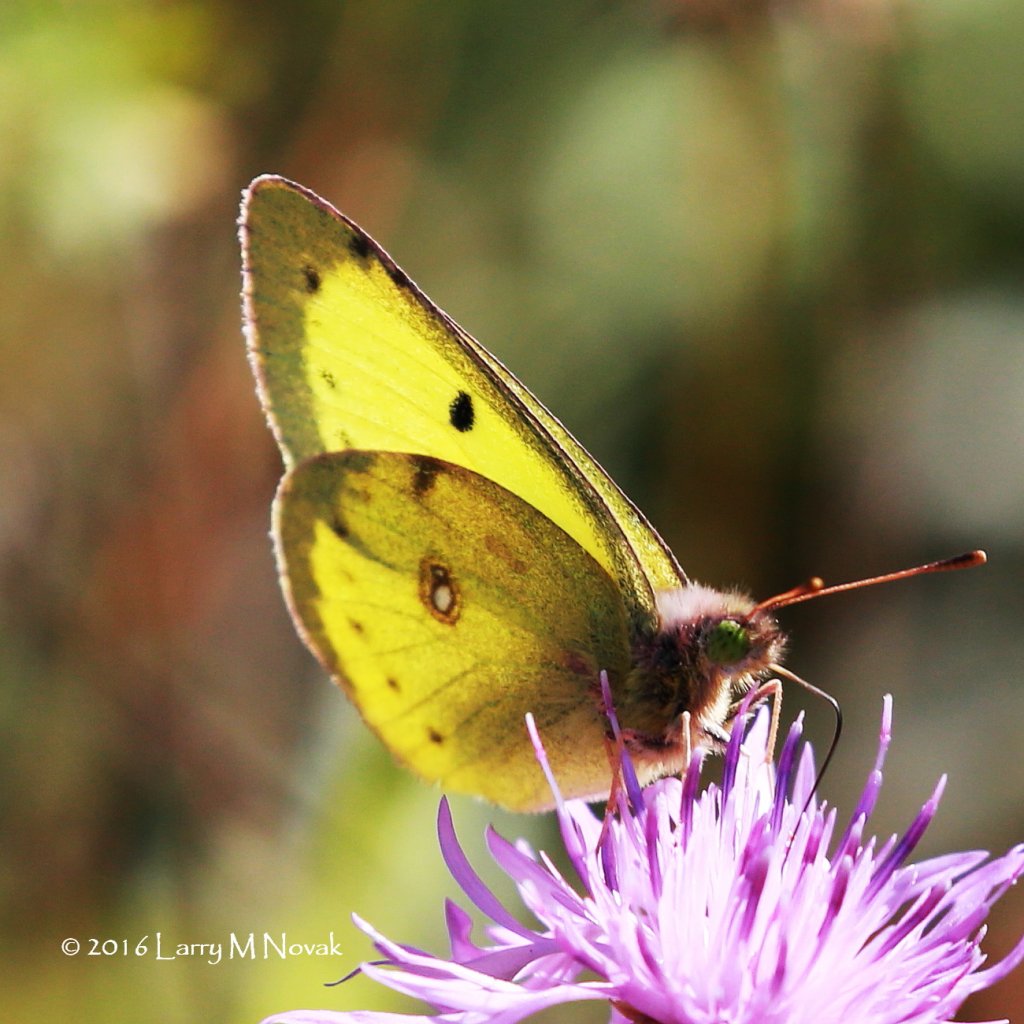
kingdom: Animalia
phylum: Arthropoda
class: Insecta
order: Lepidoptera
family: Pieridae
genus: Colias
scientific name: Colias philodice
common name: Clouded Sulphur
